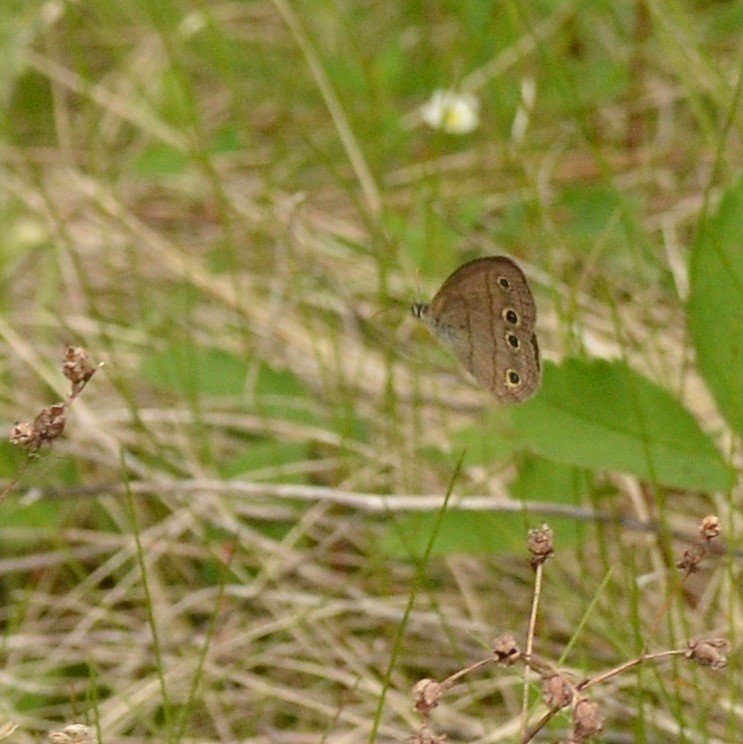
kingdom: Animalia
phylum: Arthropoda
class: Insecta
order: Lepidoptera
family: Nymphalidae
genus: Euptychia
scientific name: Euptychia cymela
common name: Little Wood Satyr
